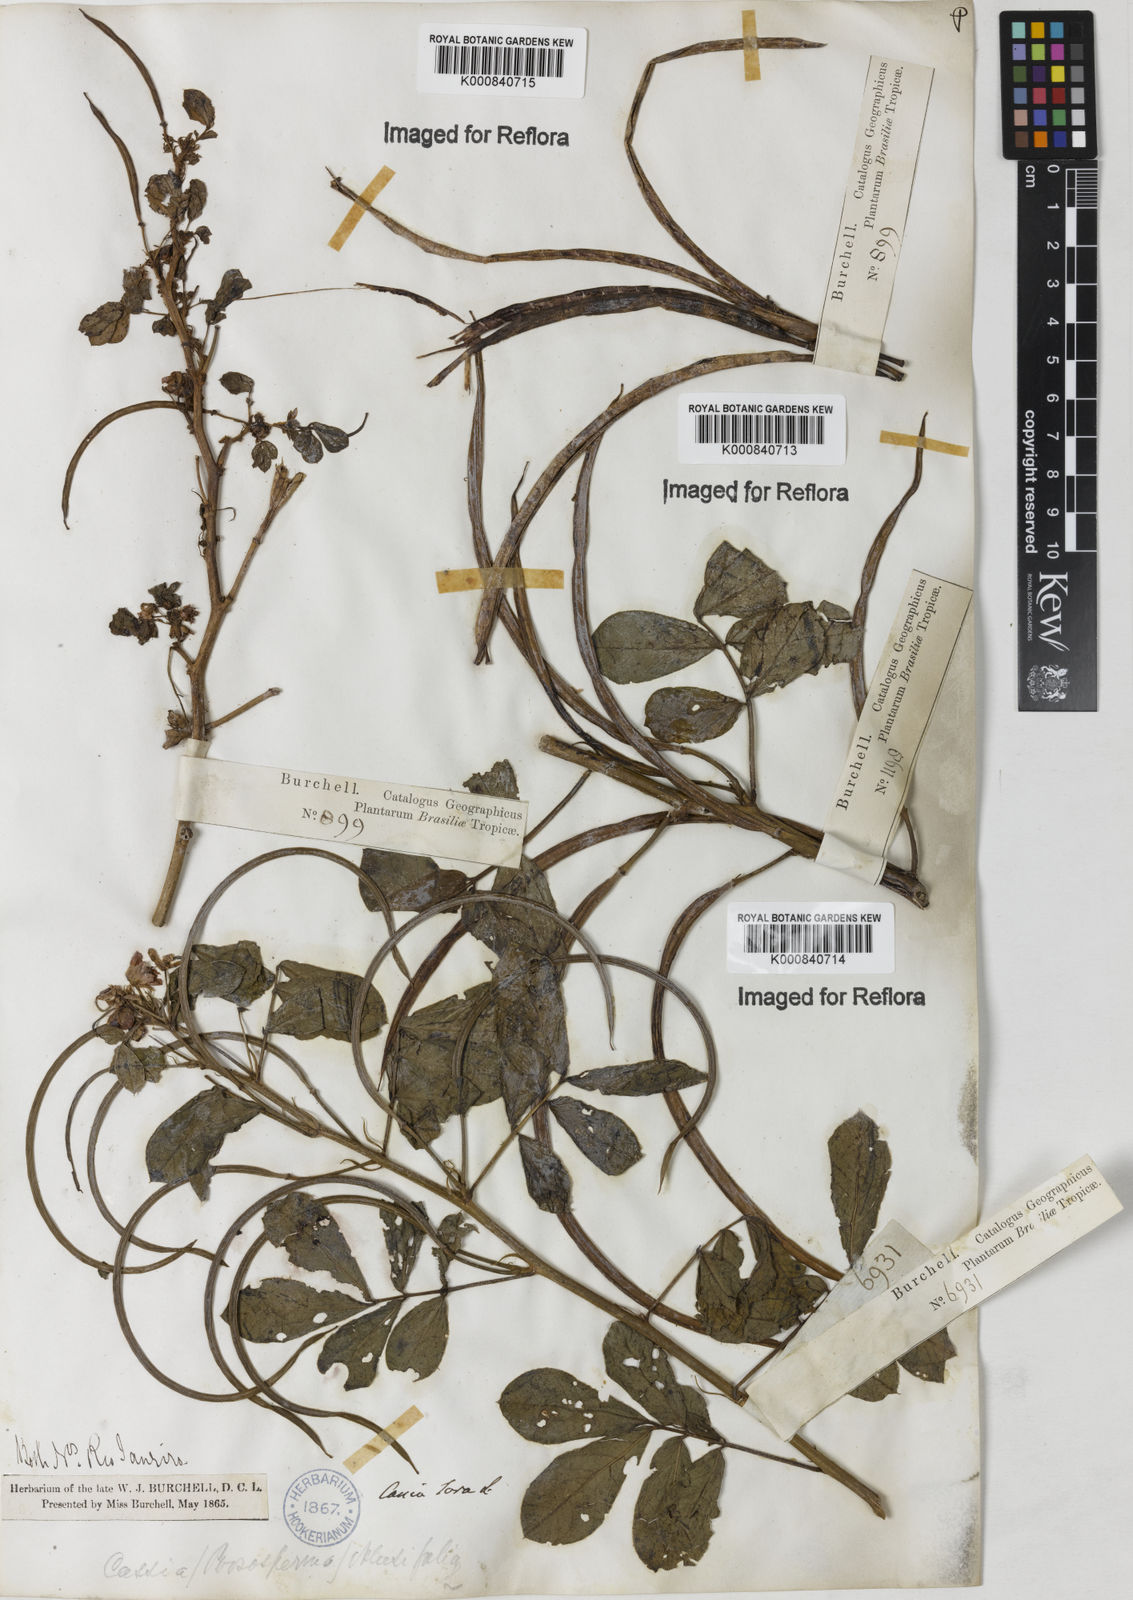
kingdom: Plantae
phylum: Tracheophyta
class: Magnoliopsida
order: Fabales
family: Fabaceae
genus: Senna
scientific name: Senna obtusifolia
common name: Java-bean
